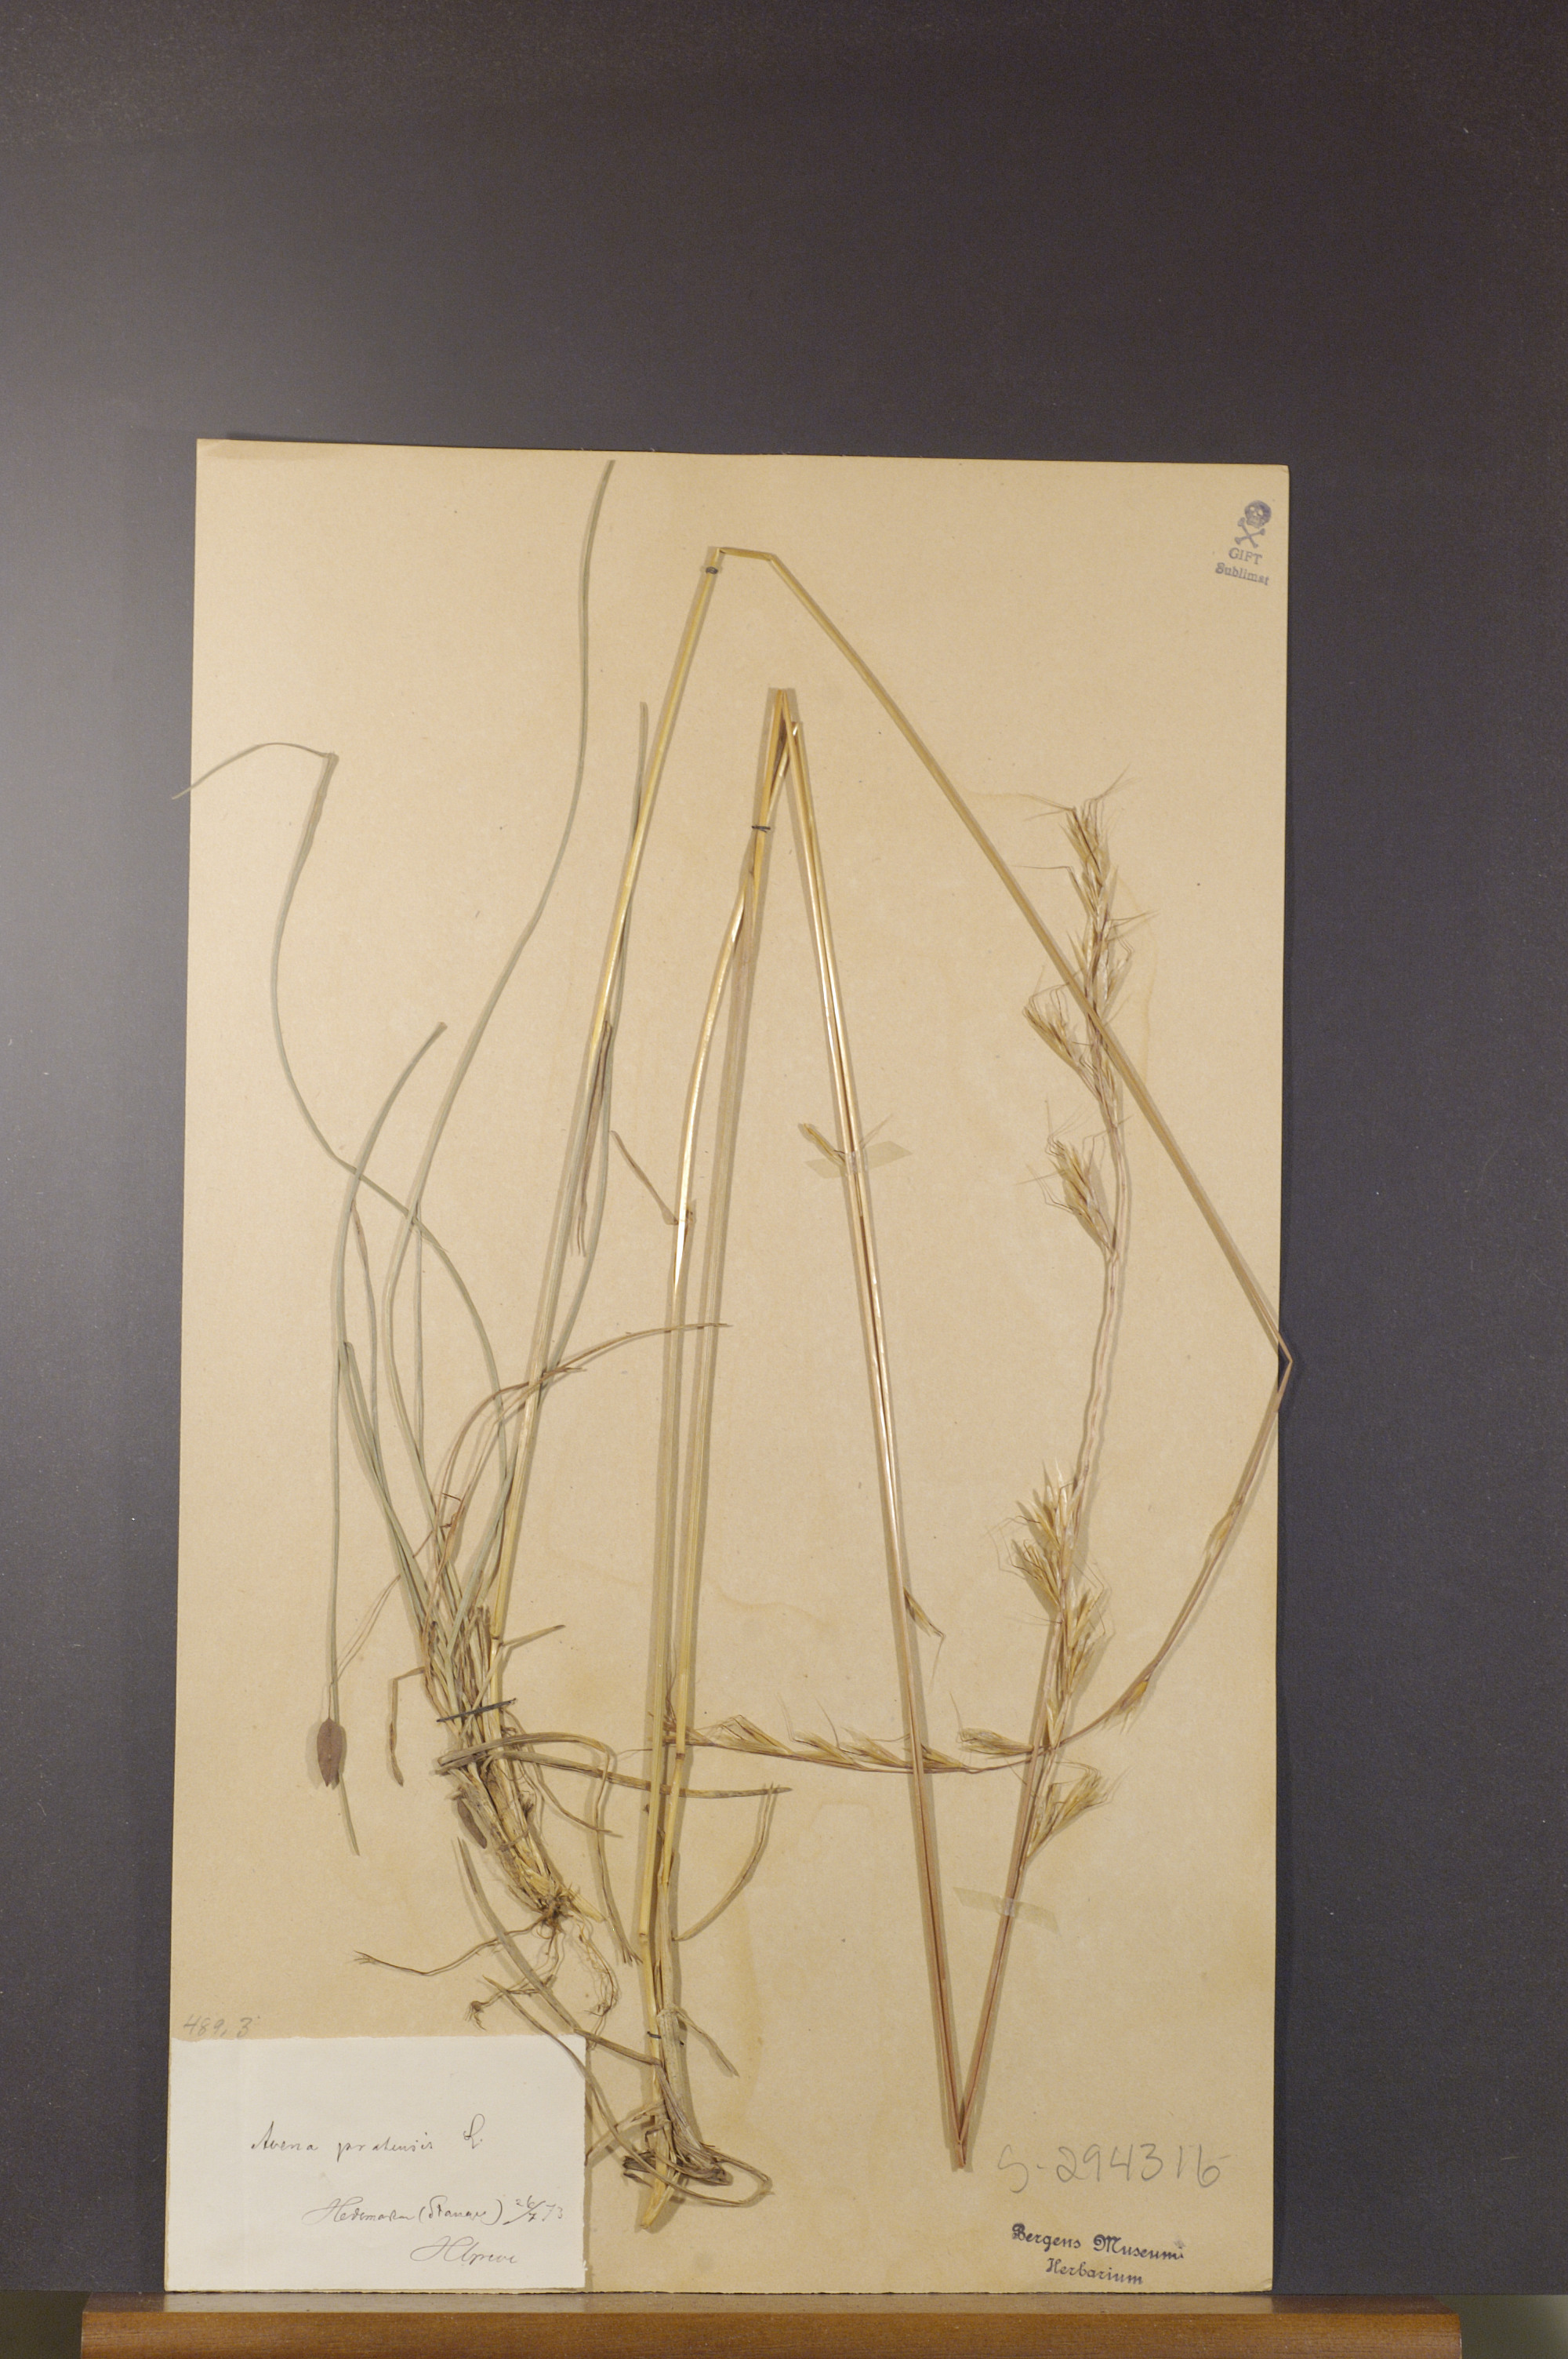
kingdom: Plantae
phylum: Tracheophyta
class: Liliopsida
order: Poales
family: Poaceae
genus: Helictochloa
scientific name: Helictochloa pratensis
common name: Meadow oat grass
